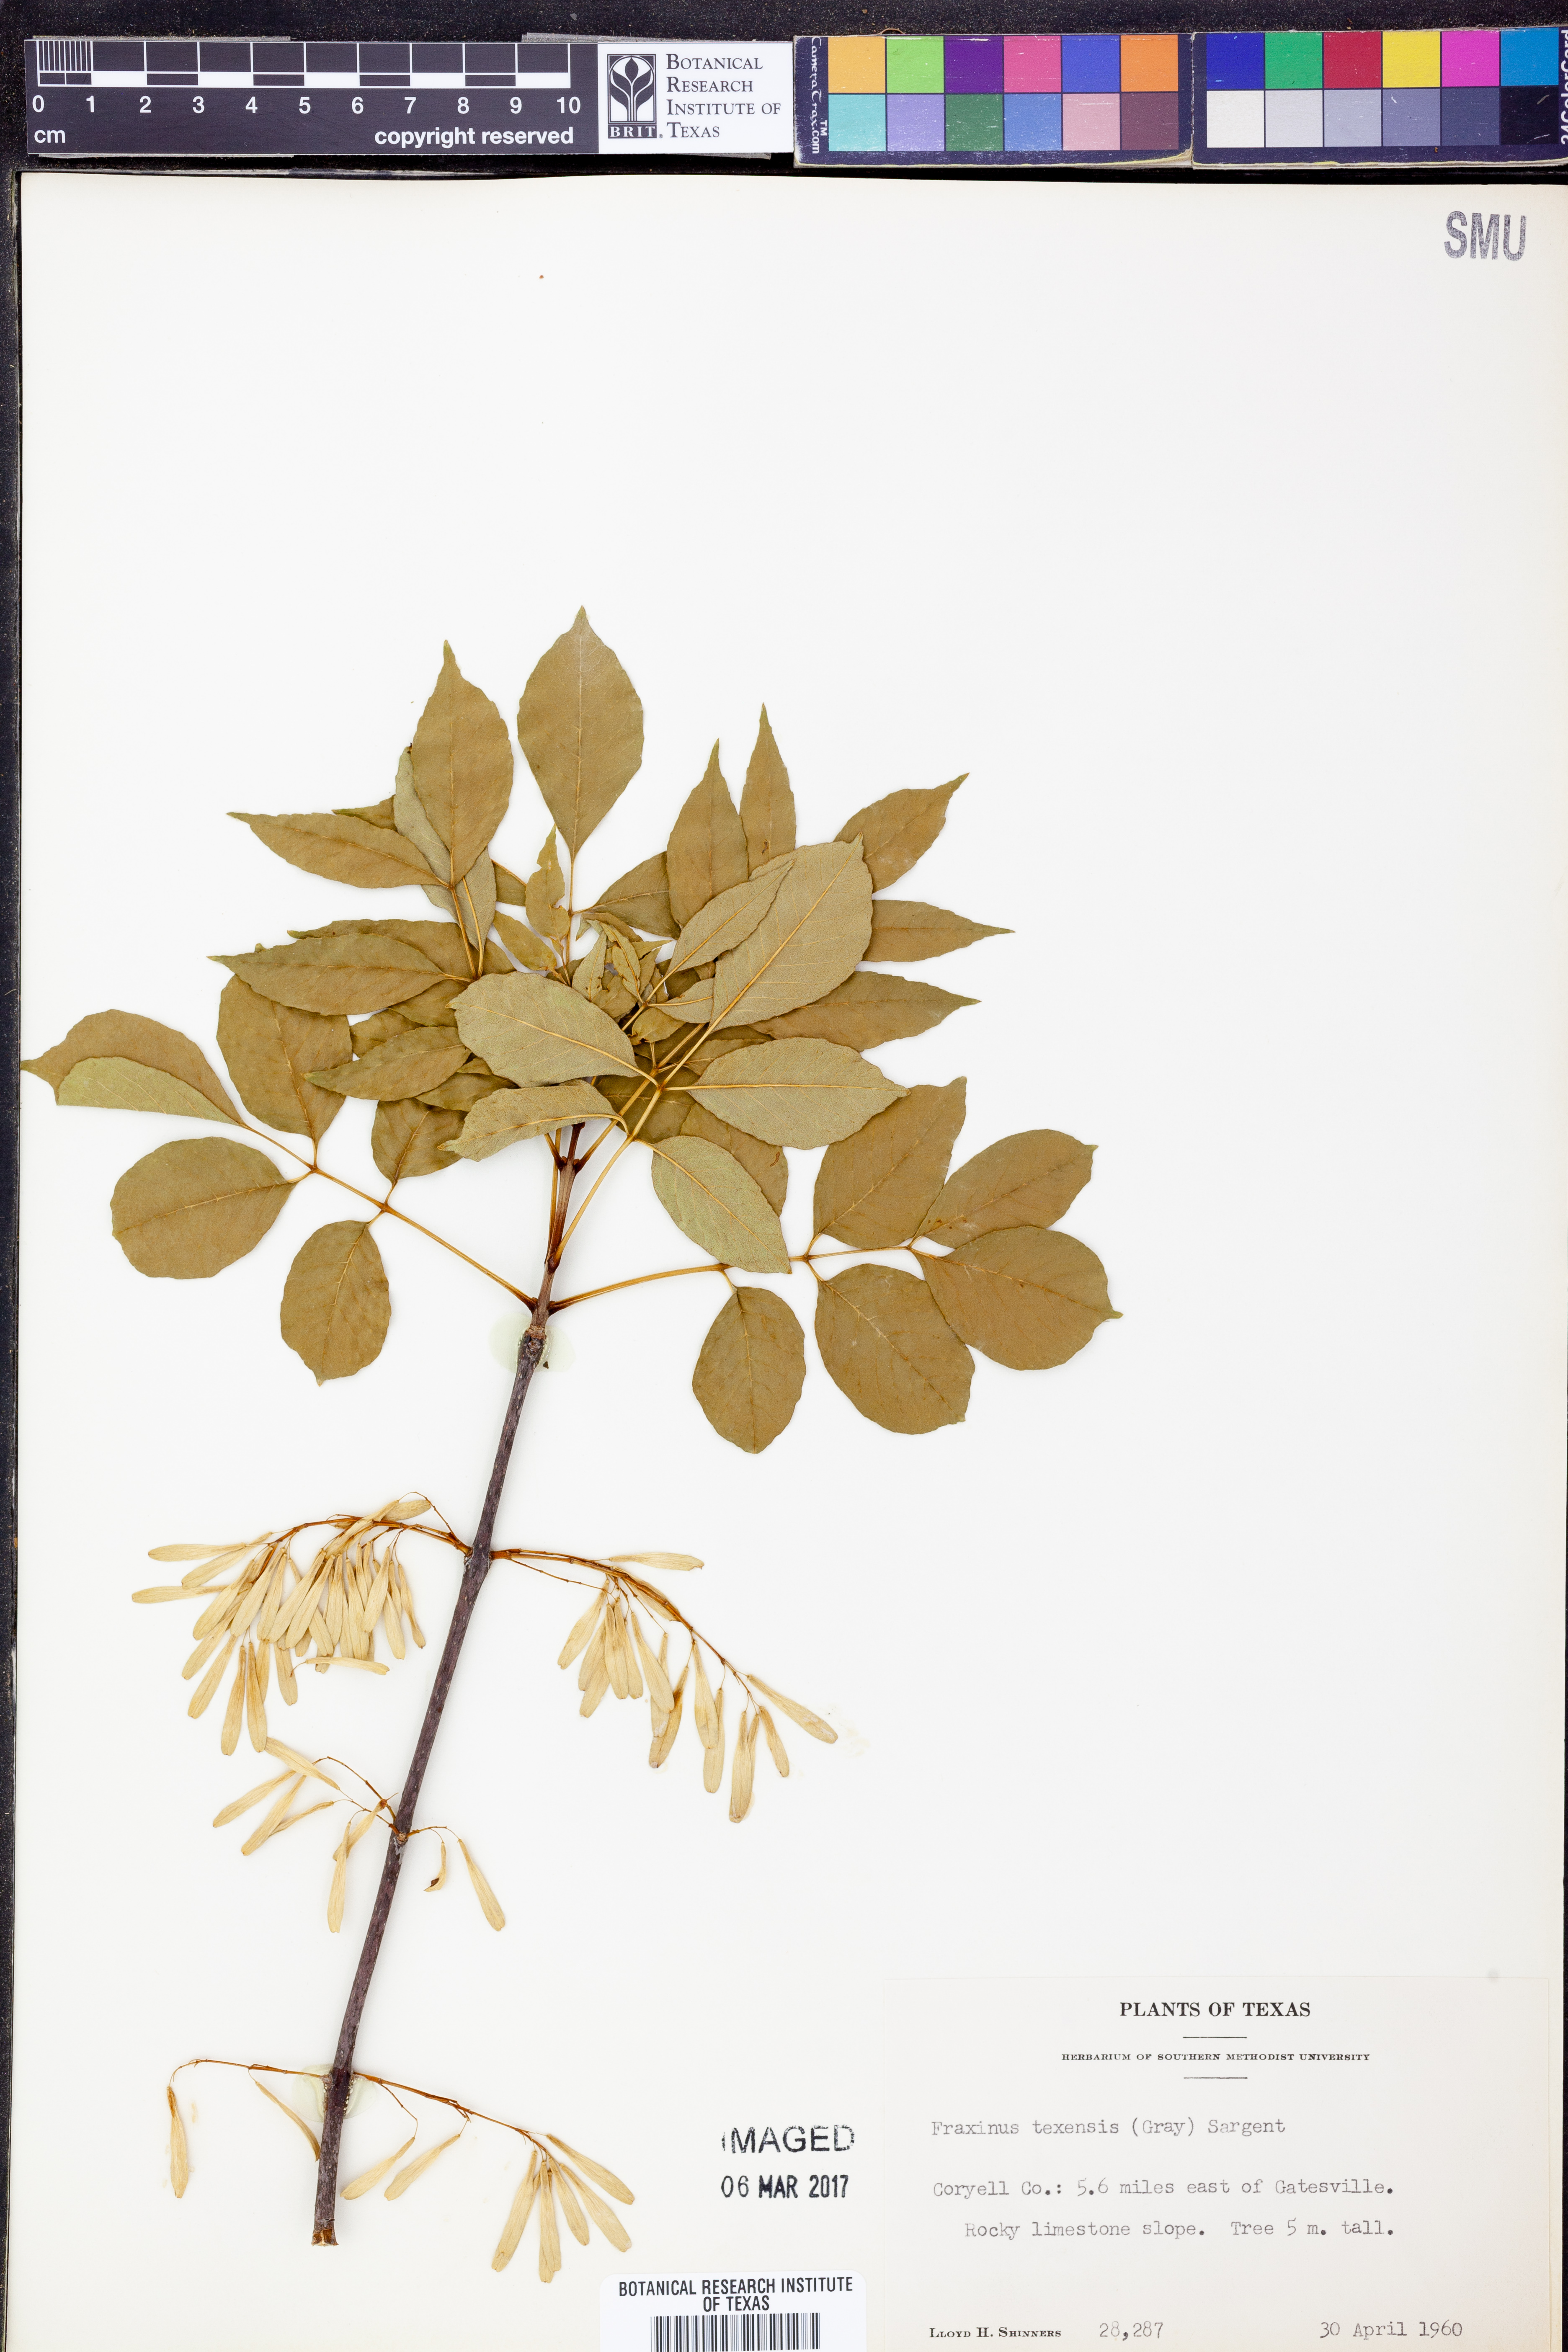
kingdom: Plantae
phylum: Tracheophyta
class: Magnoliopsida
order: Lamiales
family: Oleaceae
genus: Fraxinus
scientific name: Fraxinus albicans
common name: Texas ash
